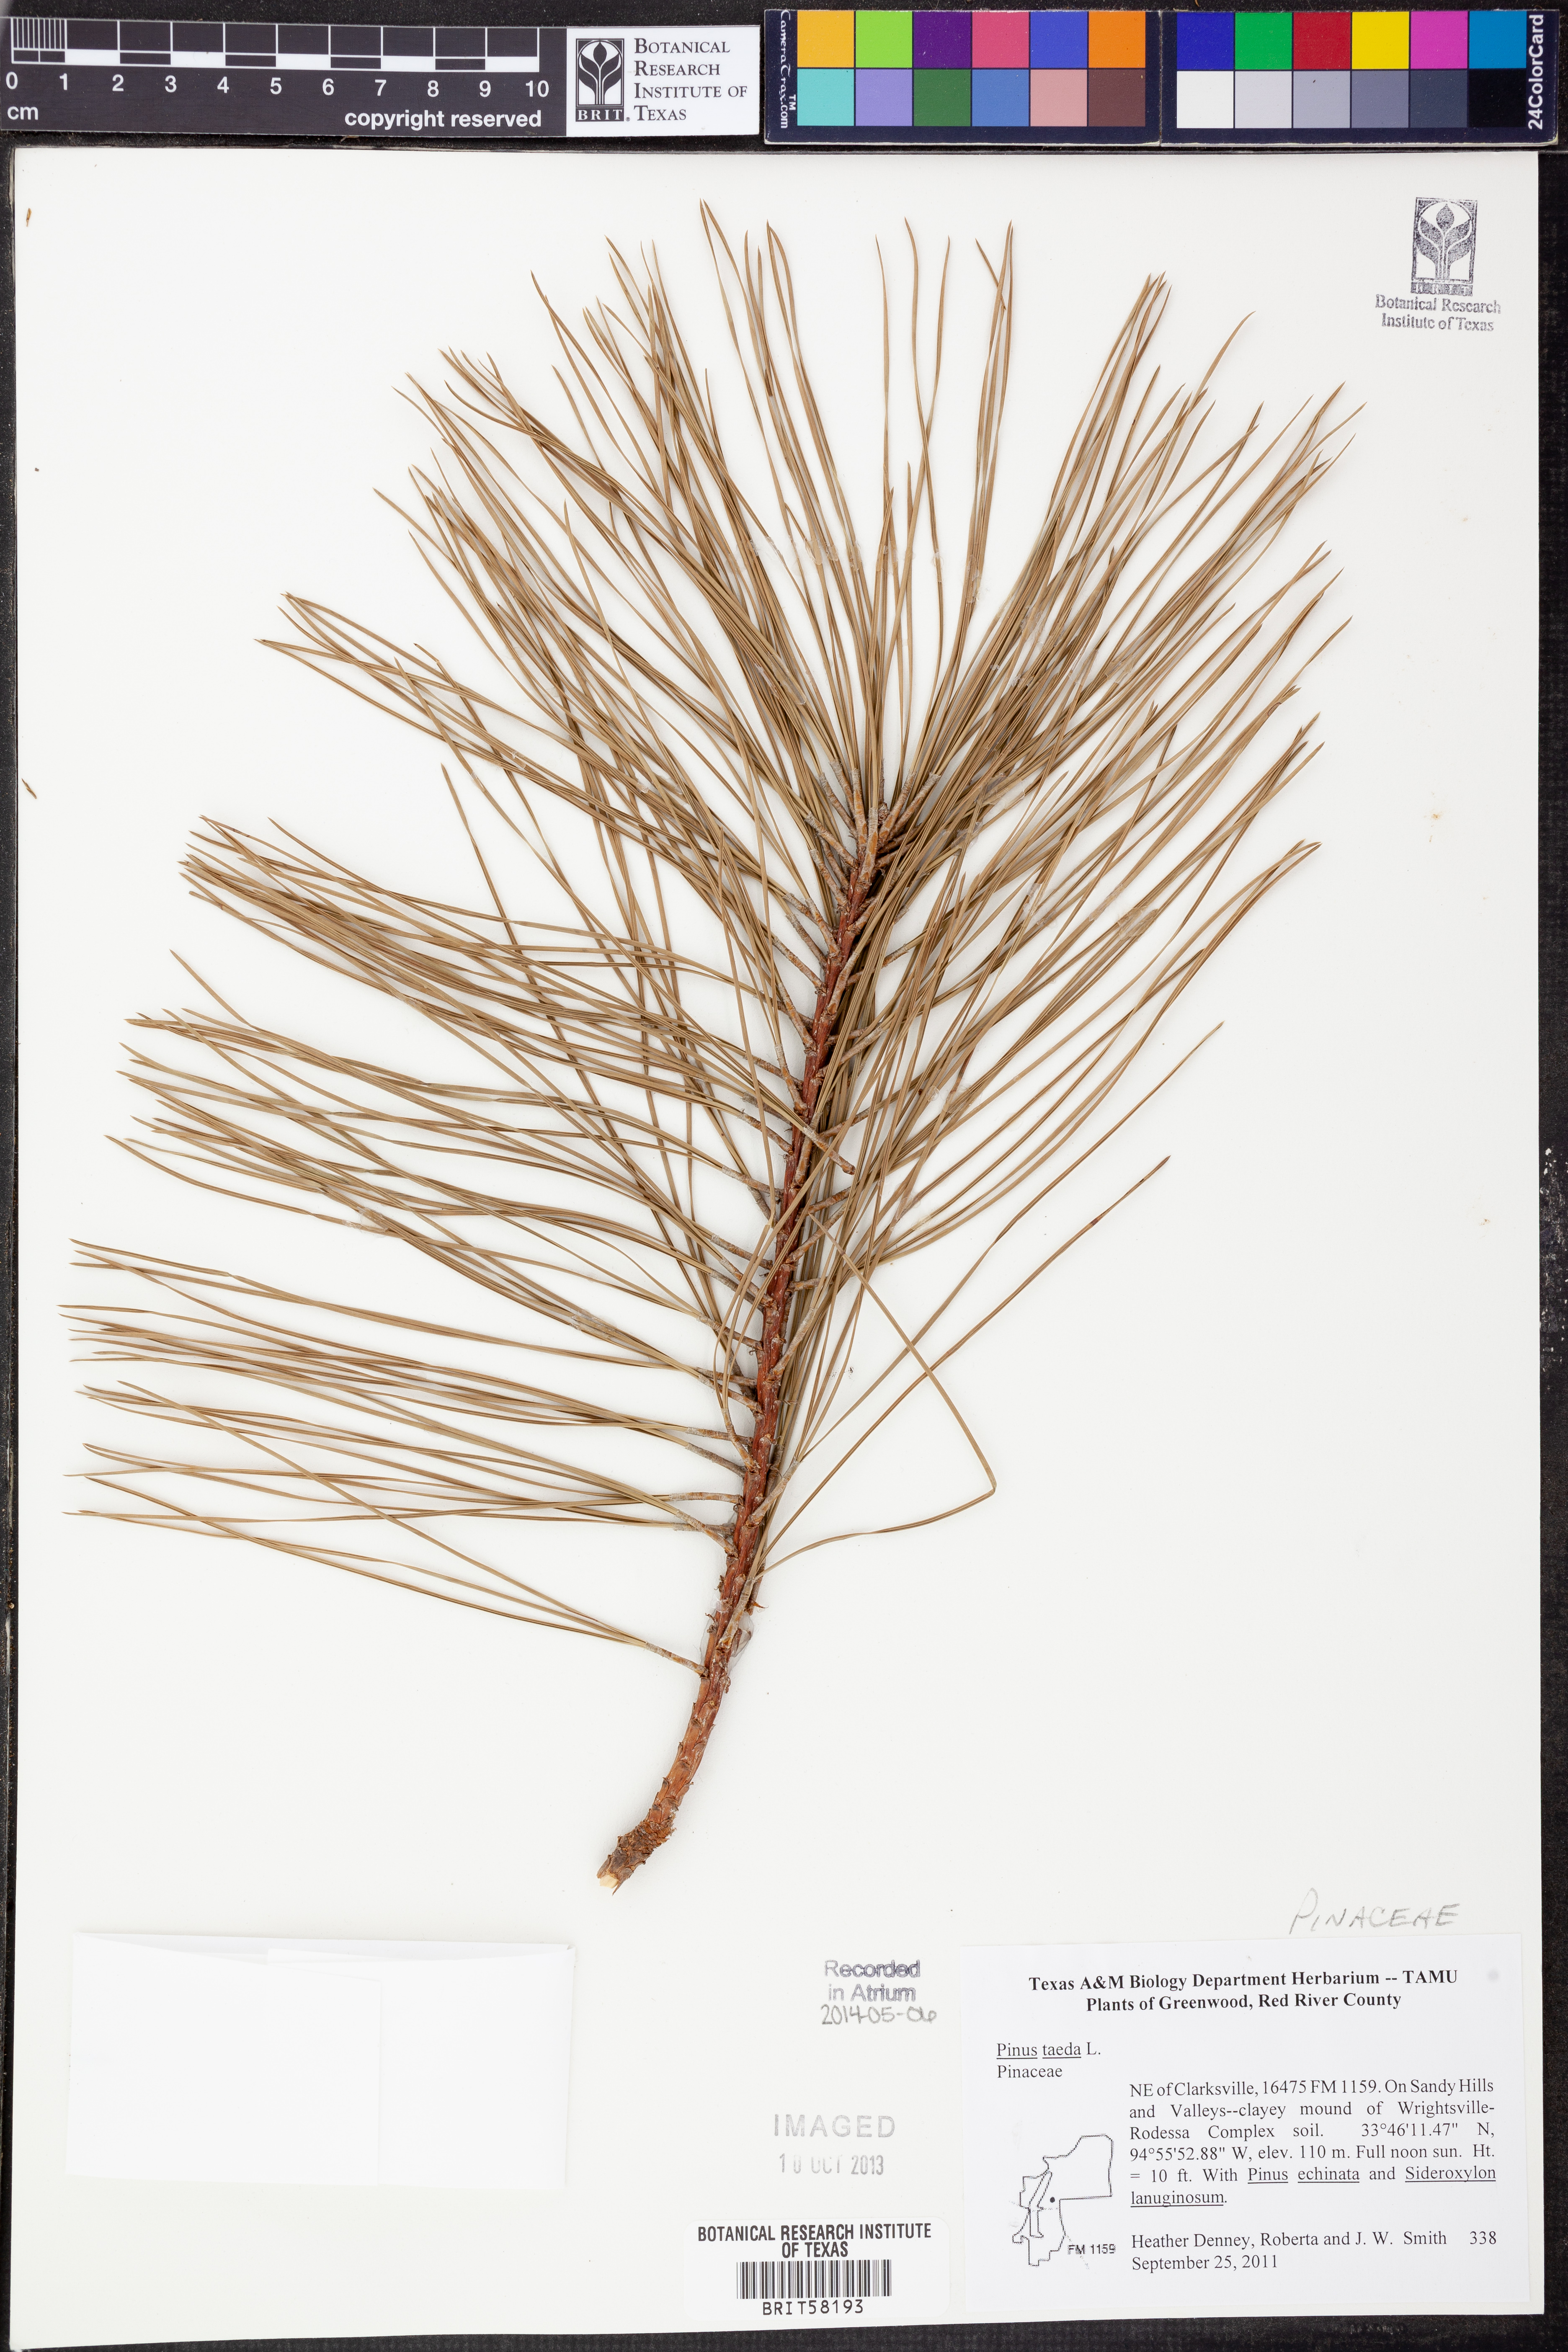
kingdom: Plantae
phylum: Tracheophyta
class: Pinopsida
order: Pinales
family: Pinaceae
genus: Pinus
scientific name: Pinus taeda
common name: Loblolly pine
